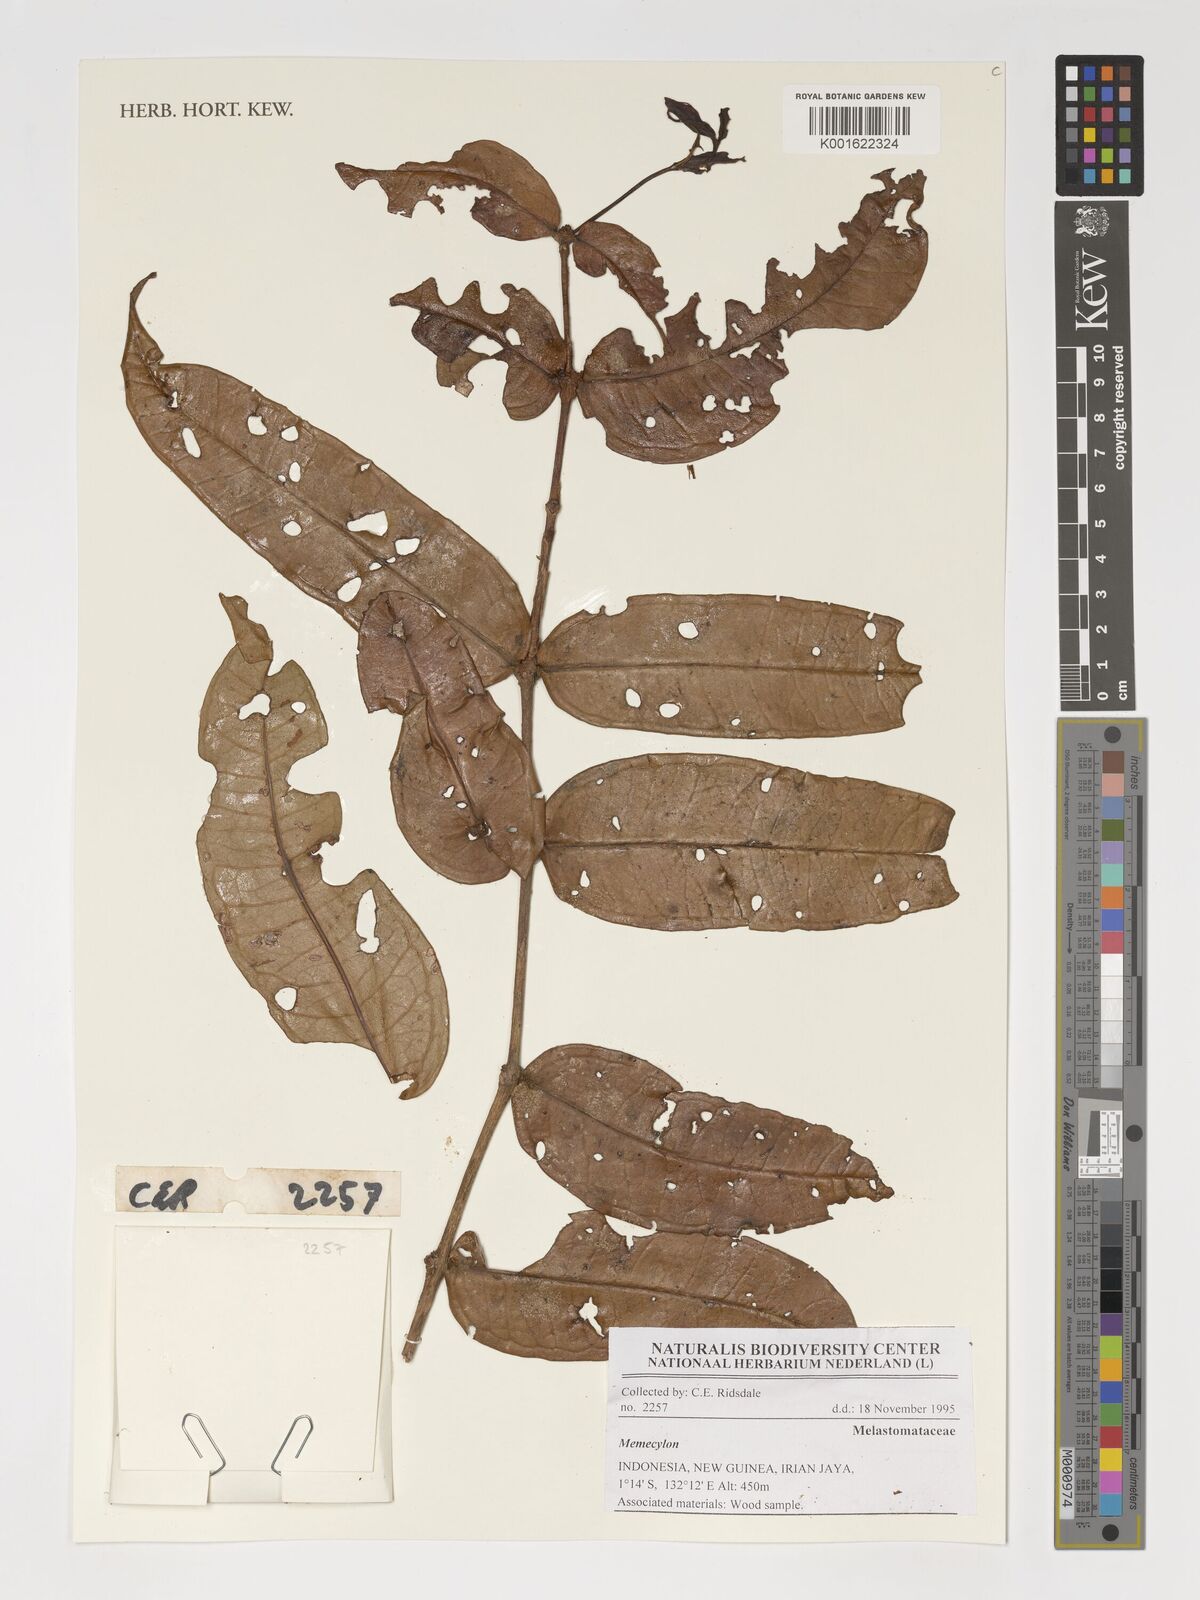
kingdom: Plantae
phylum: Tracheophyta
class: Magnoliopsida
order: Myrtales
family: Melastomataceae
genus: Memecylon
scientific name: Memecylon
